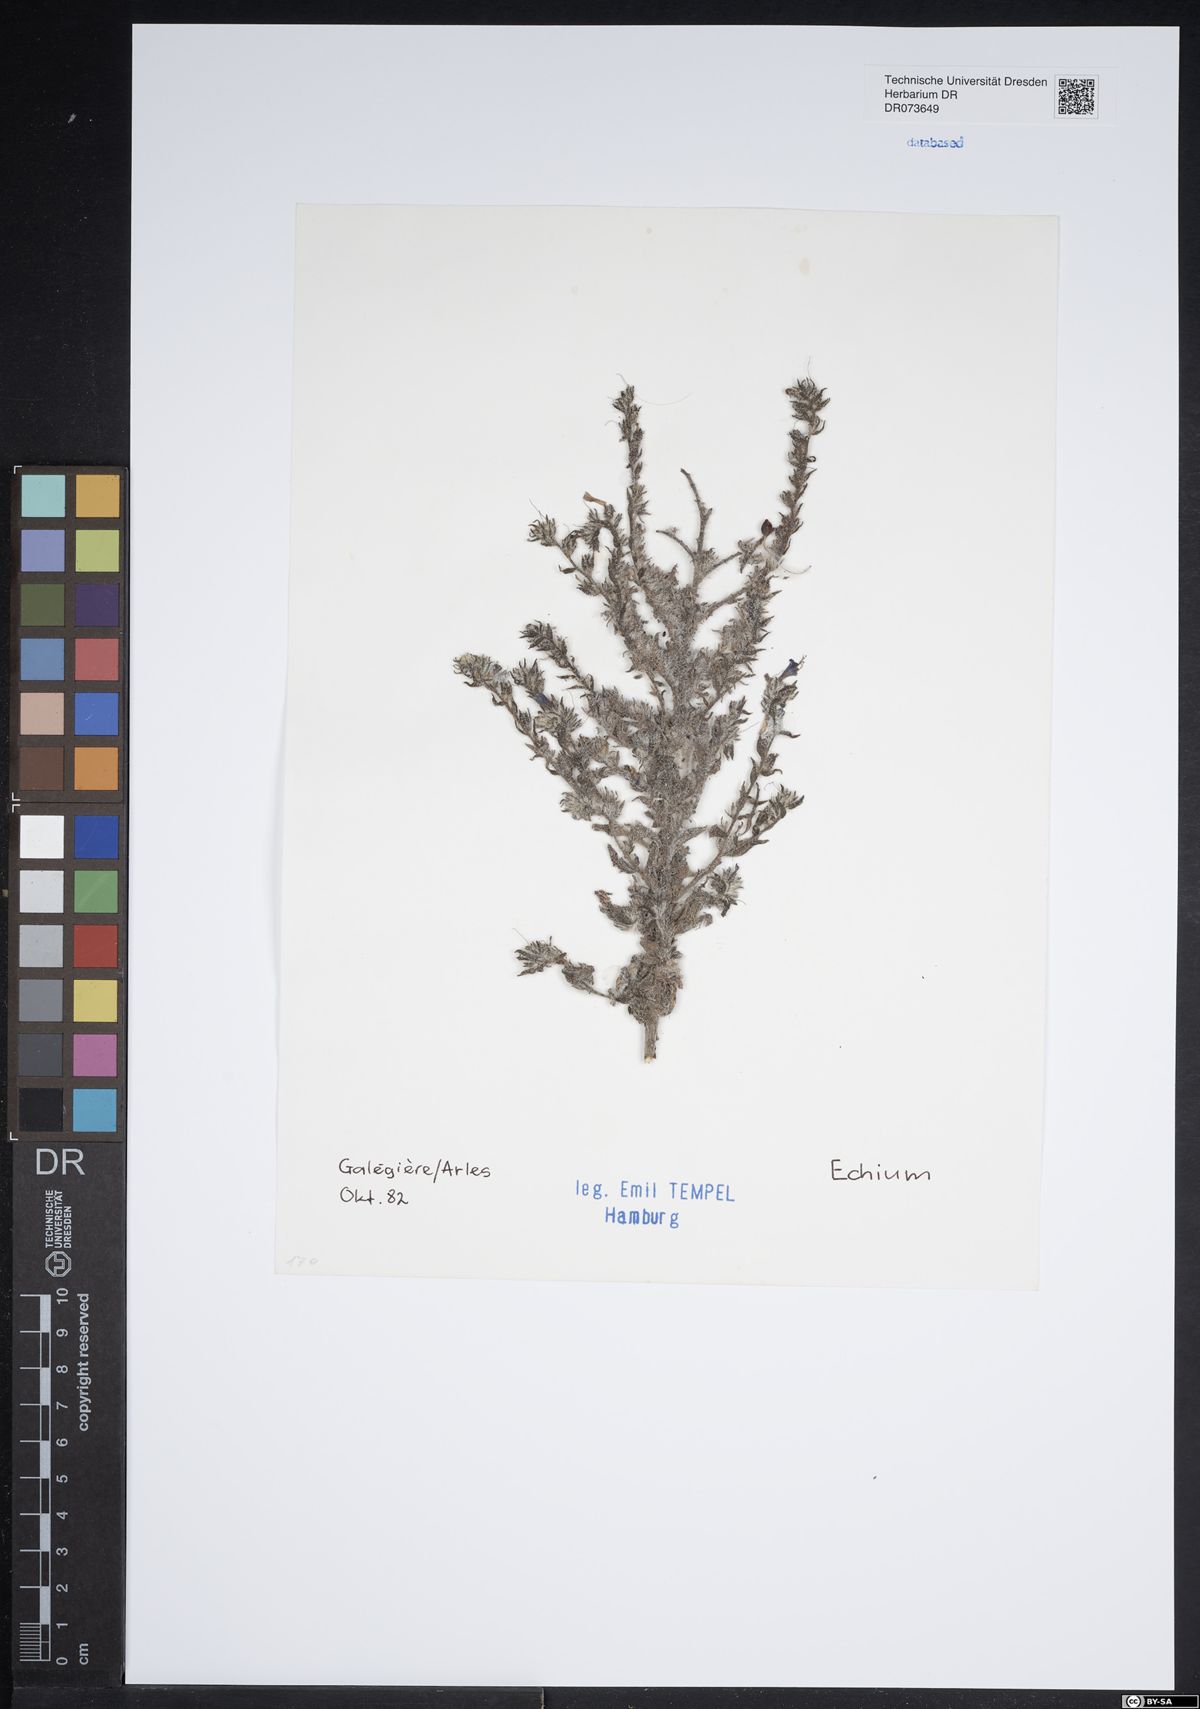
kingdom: Plantae
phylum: Tracheophyta
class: Magnoliopsida
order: Boraginales
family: Boraginaceae
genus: Echium
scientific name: Echium
